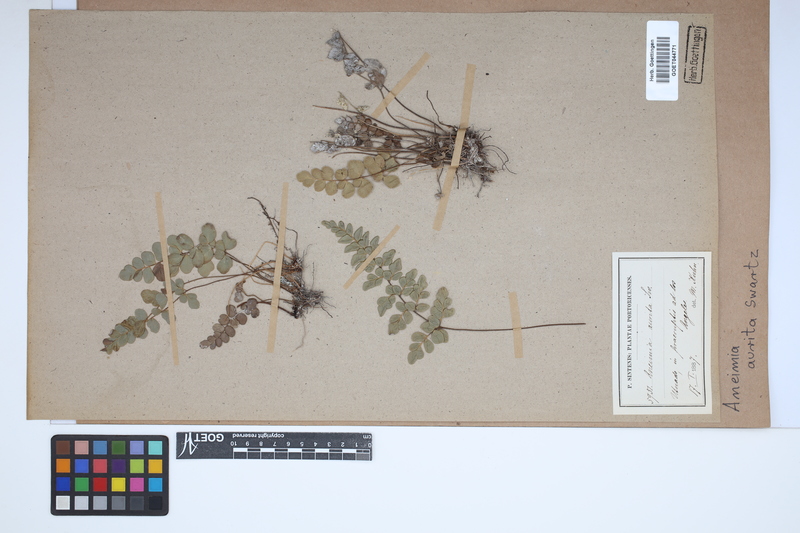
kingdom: Plantae
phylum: Tracheophyta
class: Polypodiopsida
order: Schizaeales
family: Anemiaceae
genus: Anemia
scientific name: Anemia aurita
